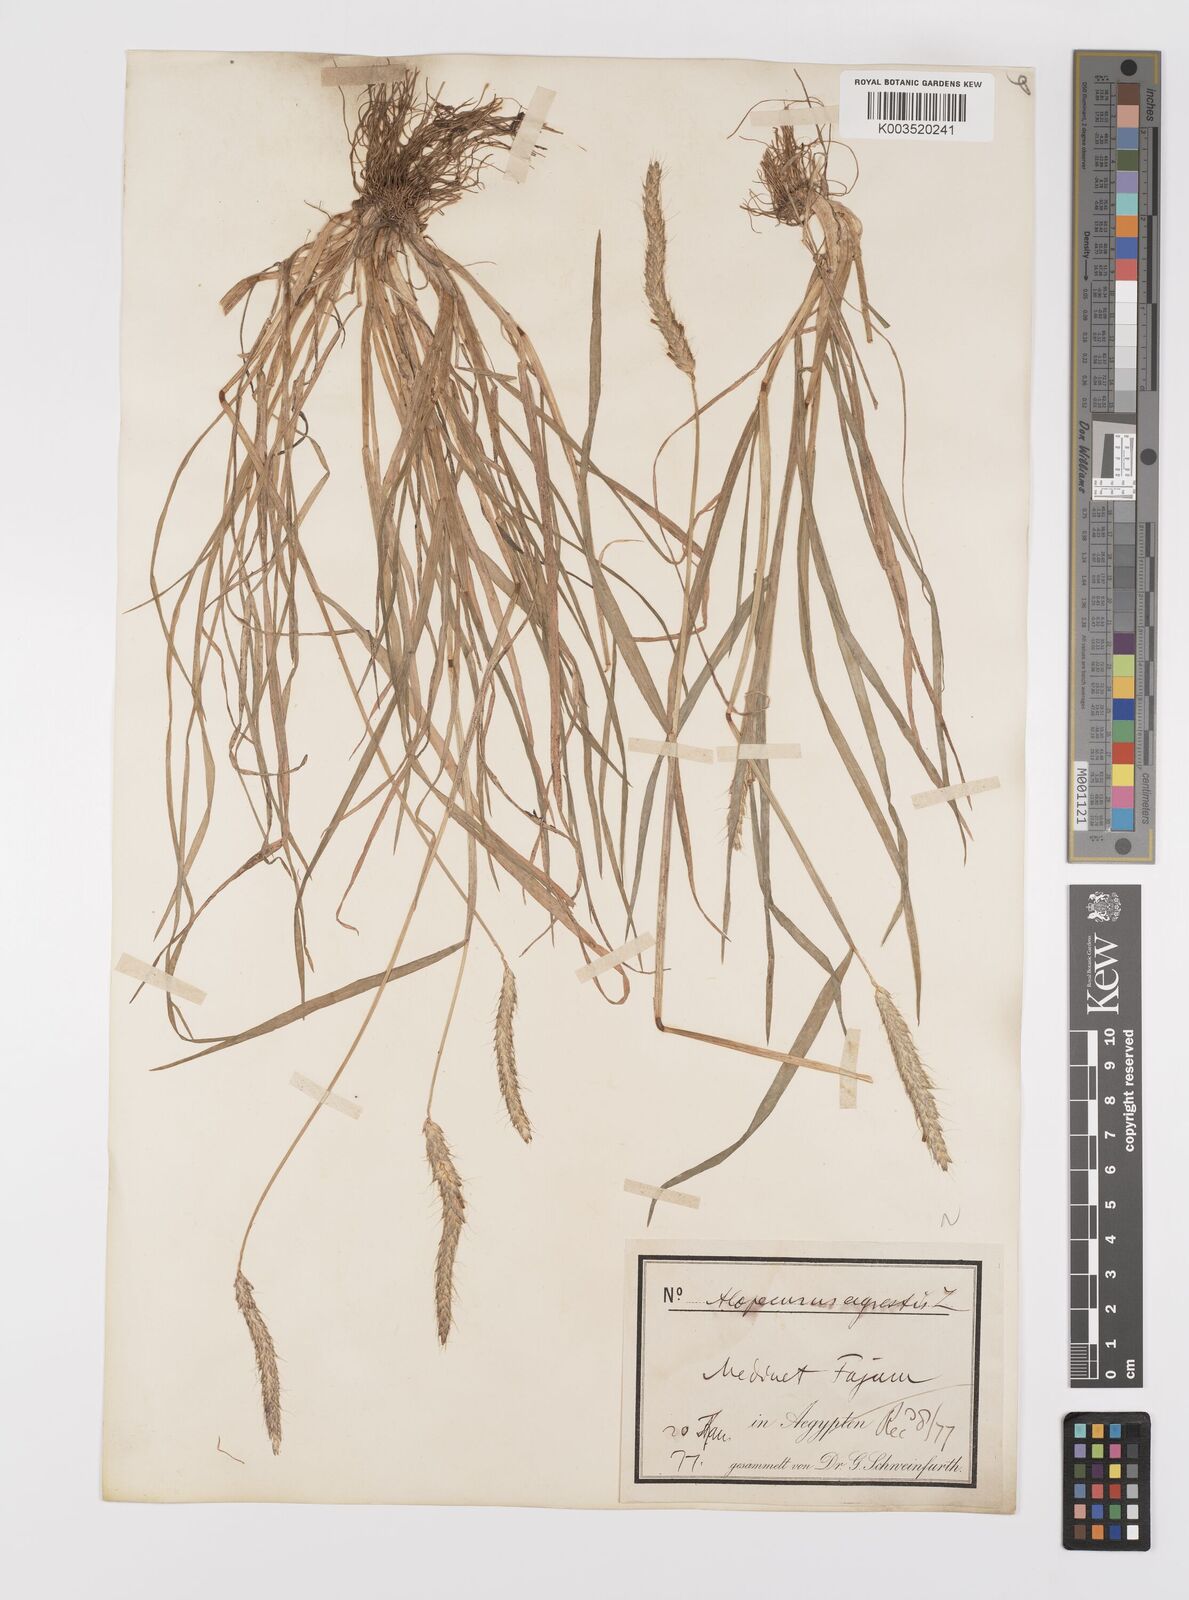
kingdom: Plantae
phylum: Tracheophyta
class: Liliopsida
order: Poales
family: Poaceae
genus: Alopecurus
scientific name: Alopecurus myosuroides
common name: Black-grass
